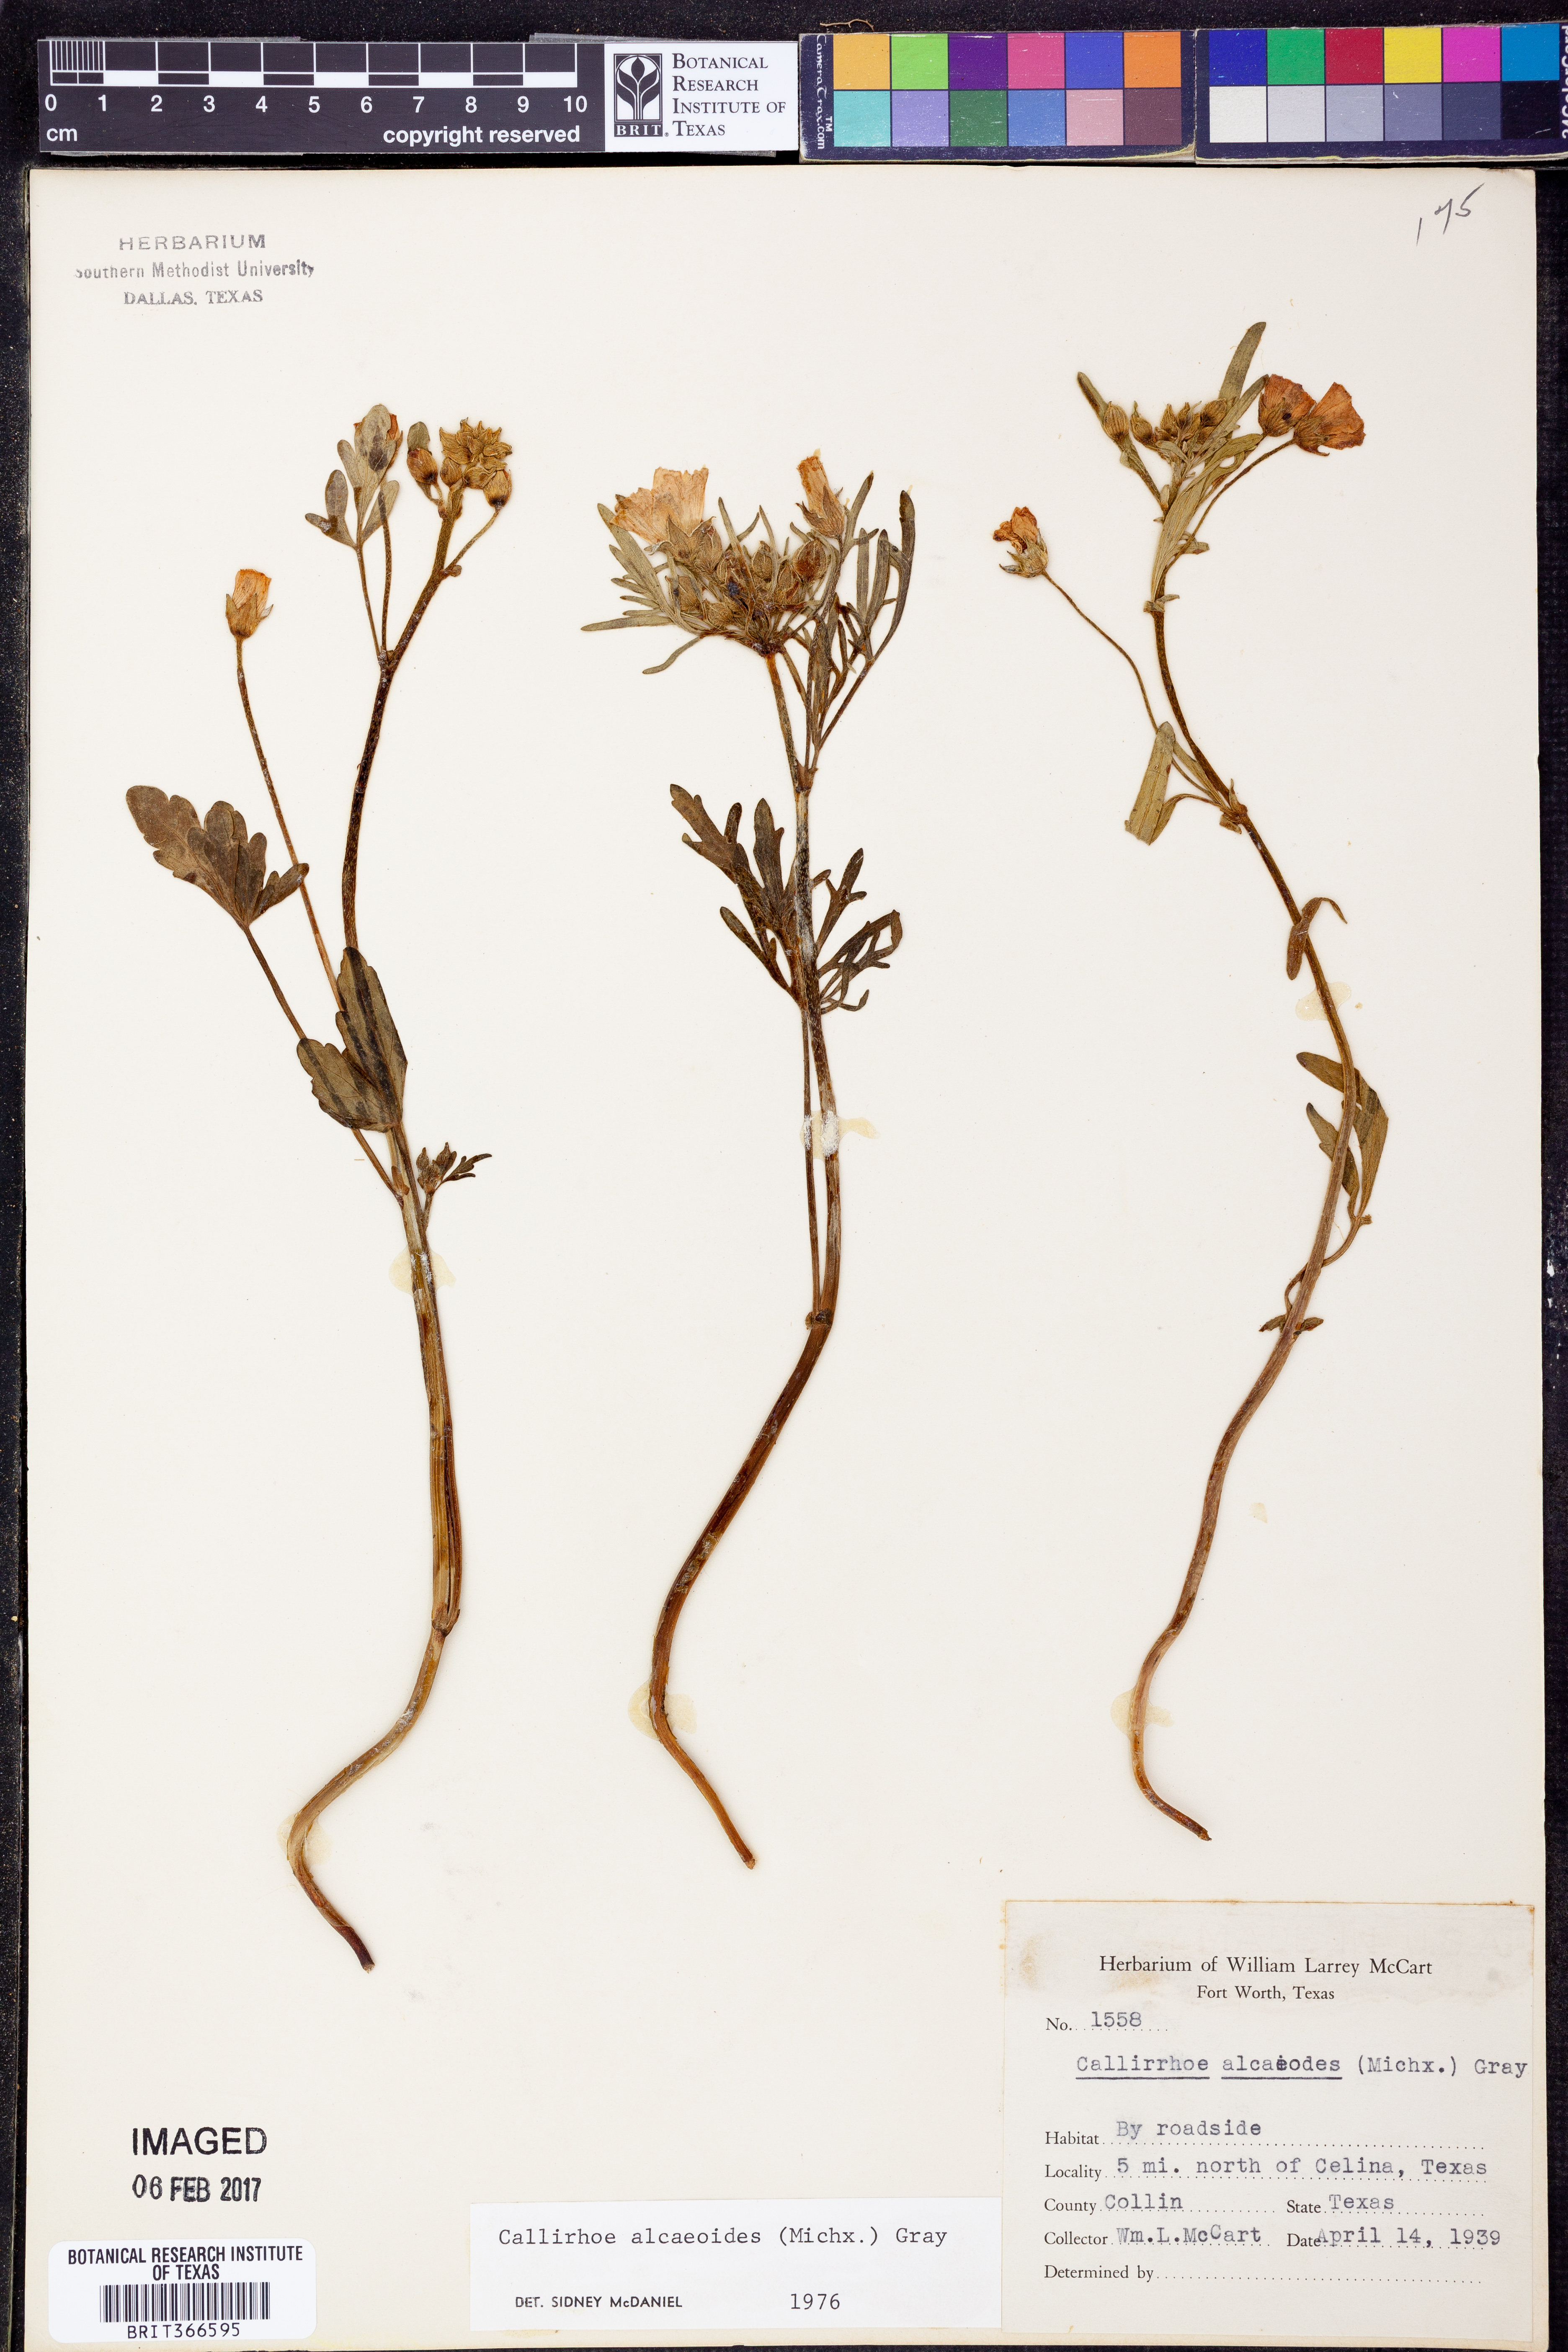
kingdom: Plantae
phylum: Tracheophyta
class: Magnoliopsida
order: Malvales
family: Malvaceae
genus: Callirhoe
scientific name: Callirhoe alcaeoides
